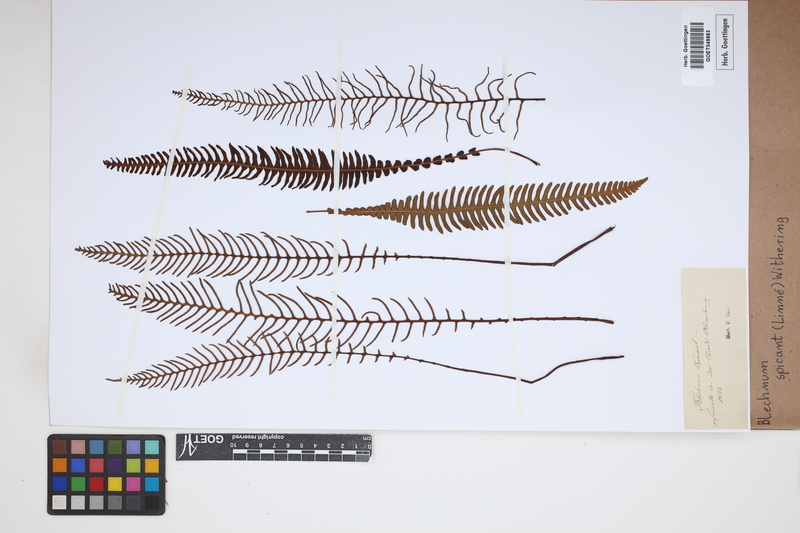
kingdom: Plantae
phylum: Tracheophyta
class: Polypodiopsida
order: Polypodiales
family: Blechnaceae
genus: Struthiopteris
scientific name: Struthiopteris spicant
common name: Deer fern
